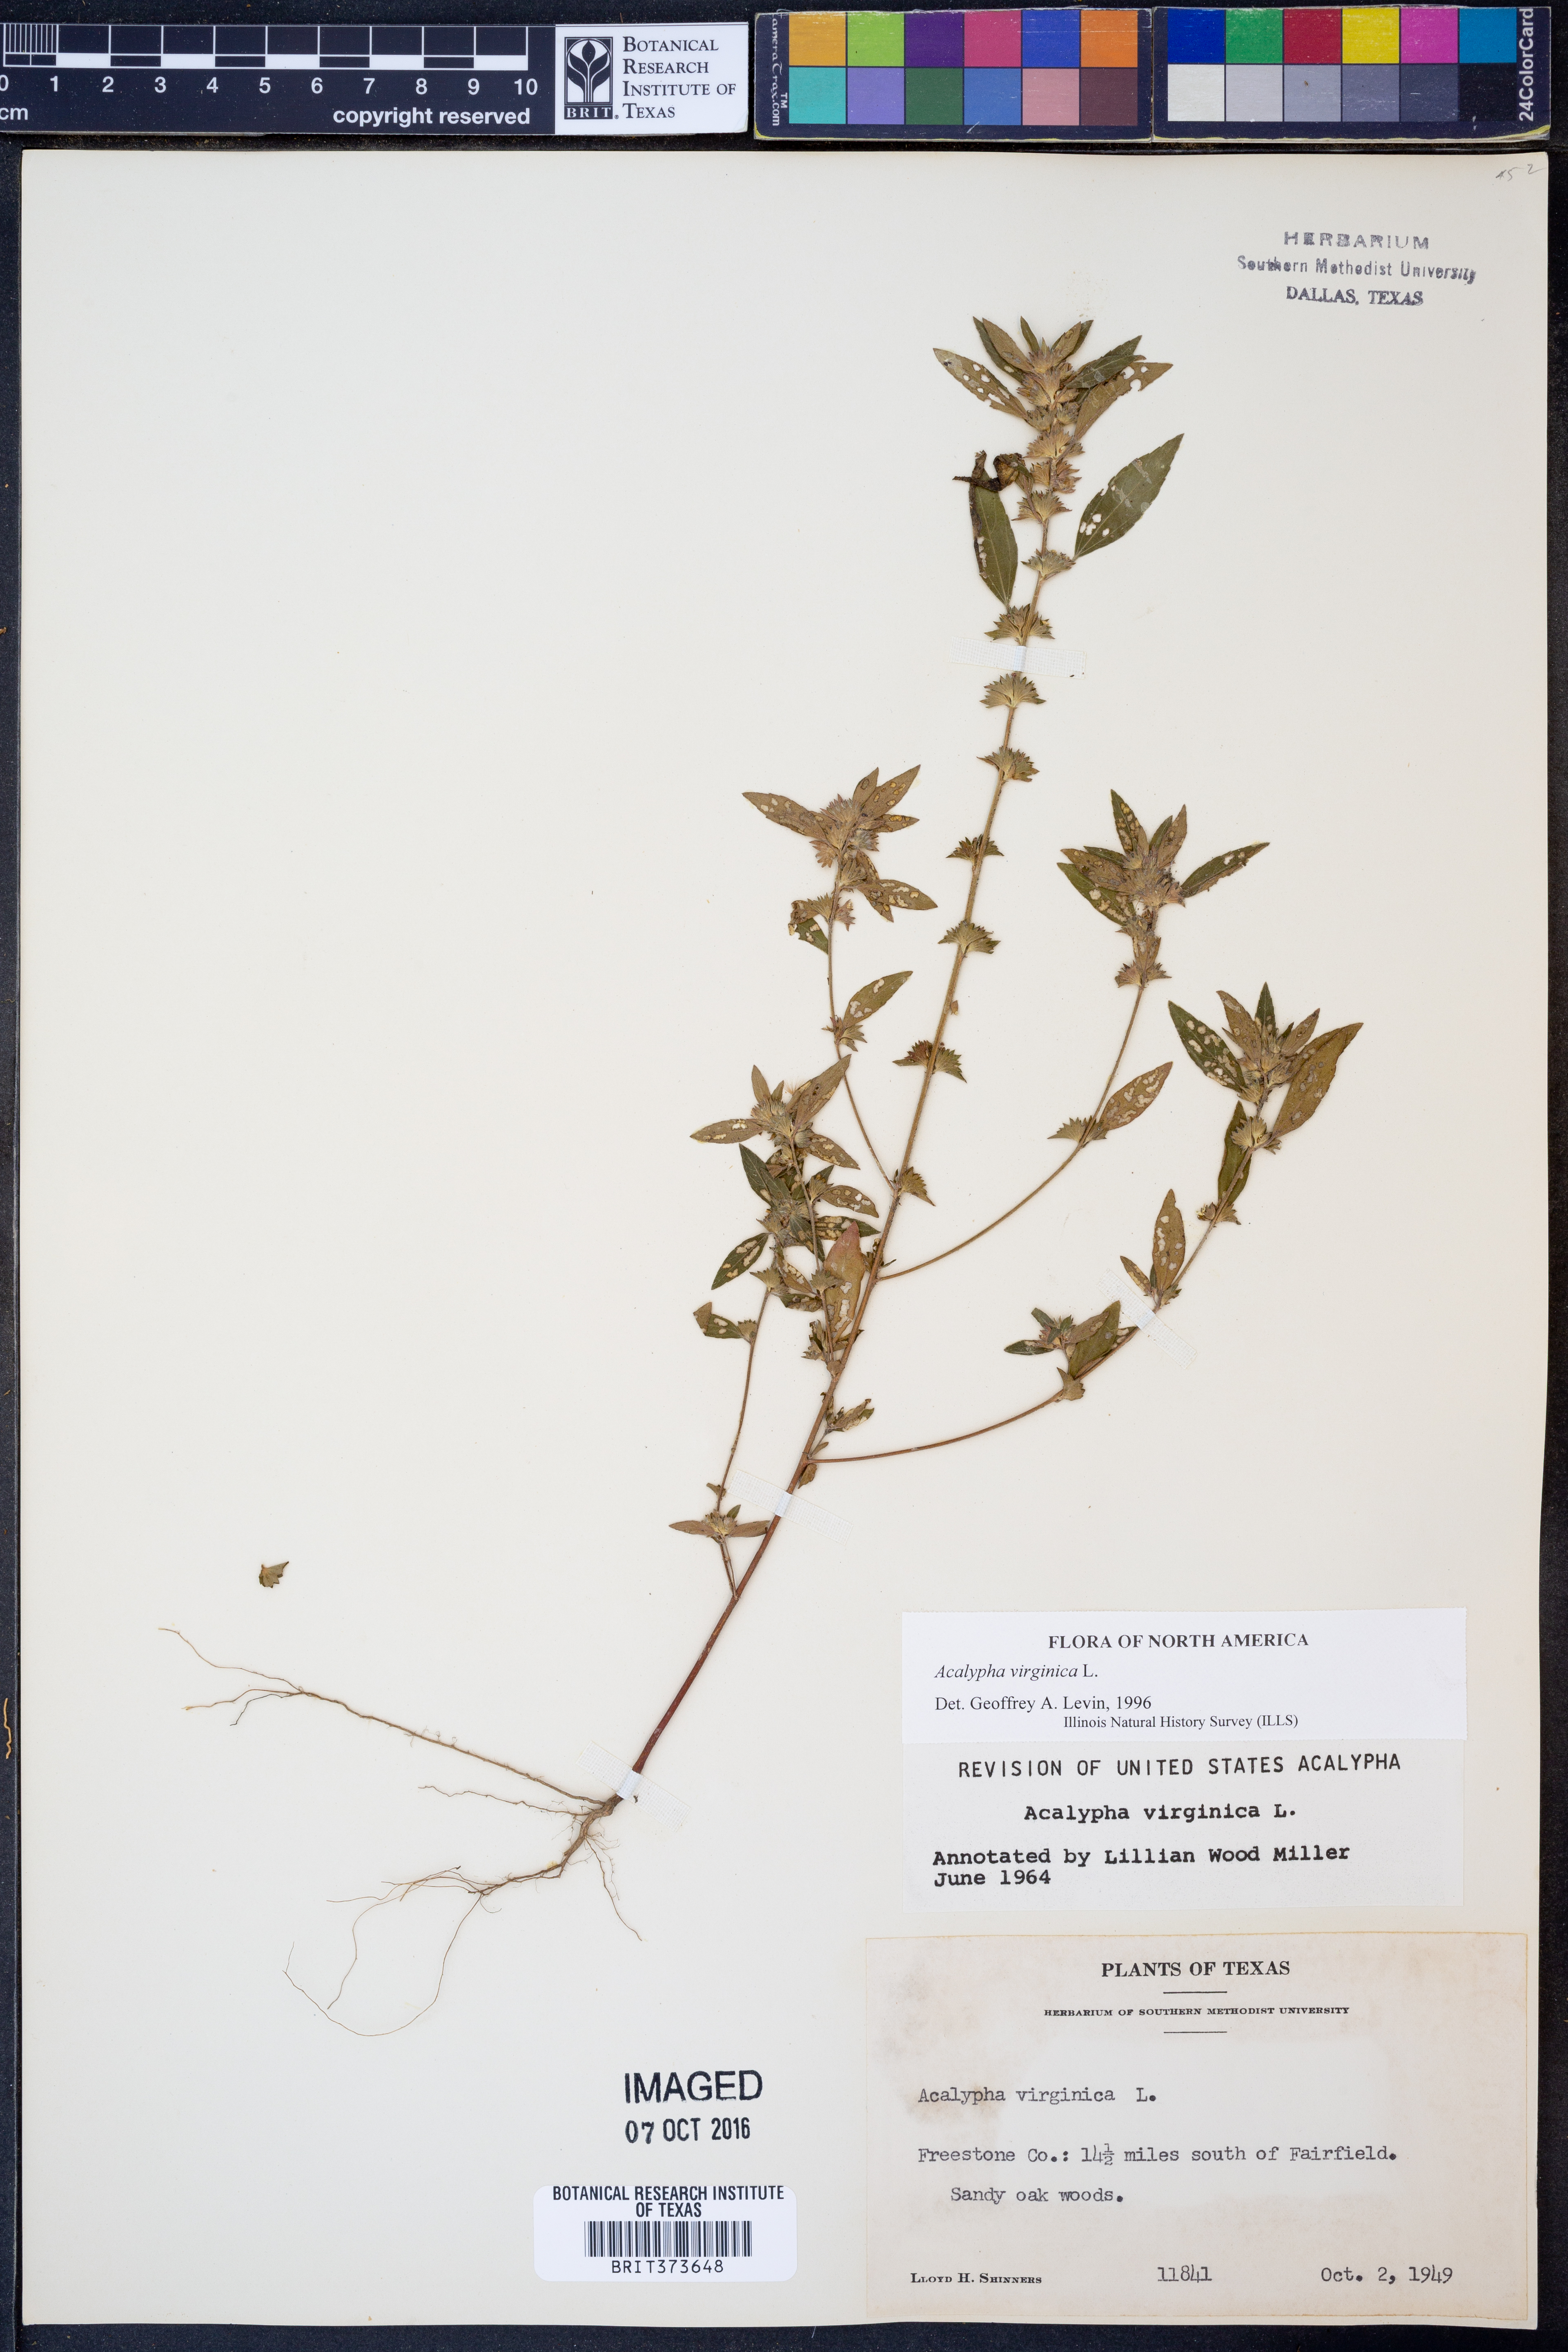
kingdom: Plantae
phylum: Tracheophyta
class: Magnoliopsida
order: Malpighiales
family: Euphorbiaceae
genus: Acalypha
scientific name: Acalypha virginica
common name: Virginia copperleaf
